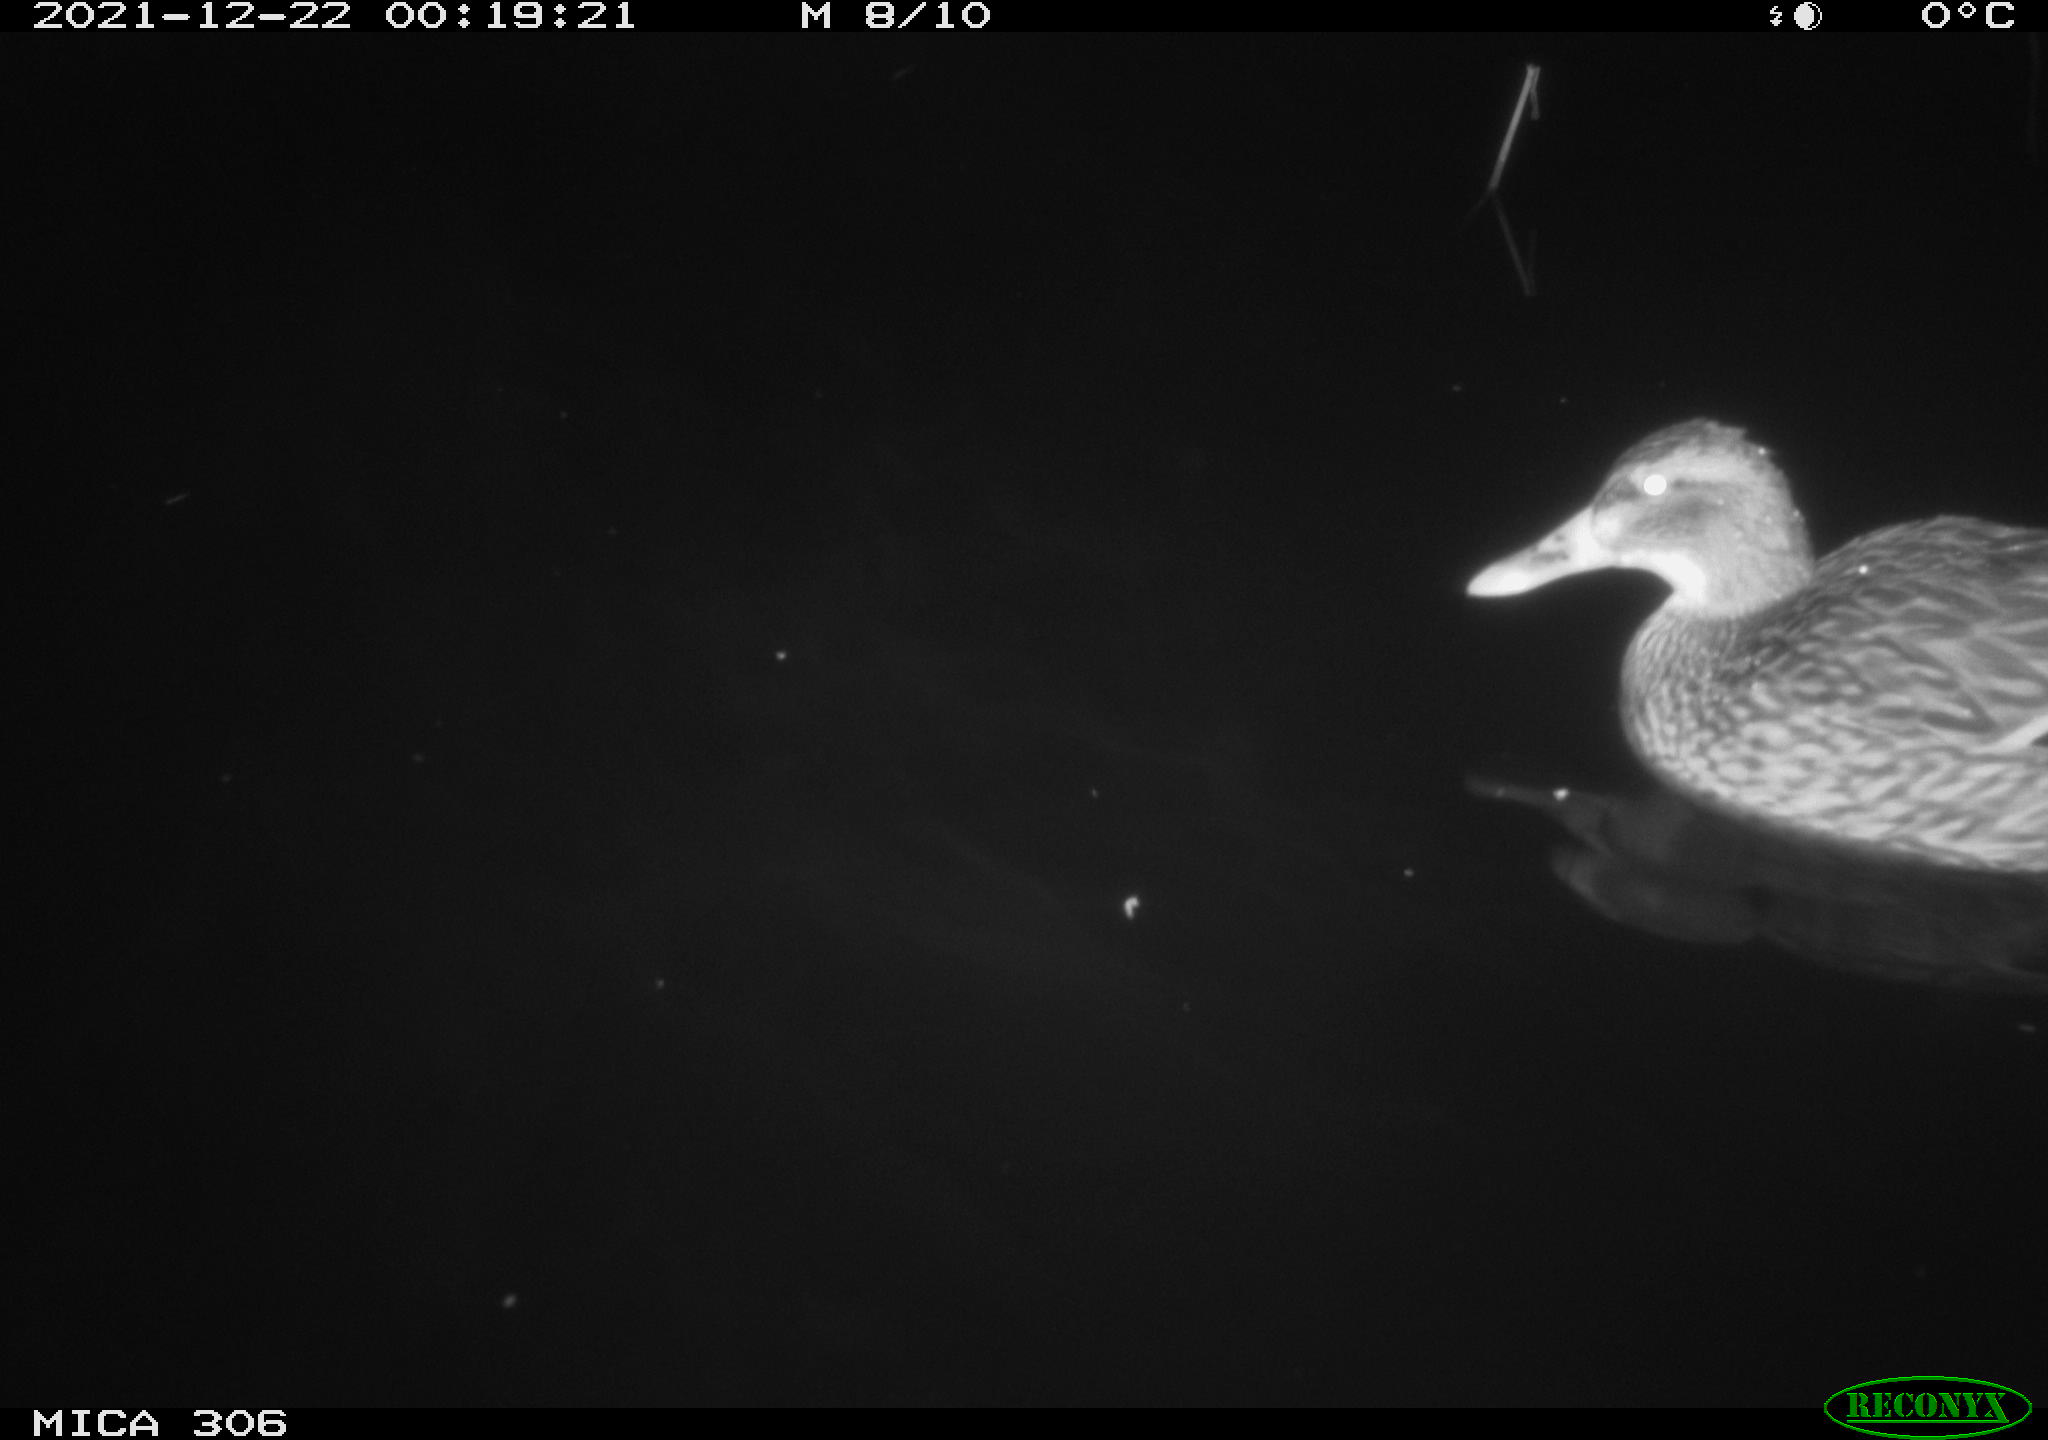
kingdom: Animalia
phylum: Chordata
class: Aves
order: Anseriformes
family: Anatidae
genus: Anas
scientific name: Anas
